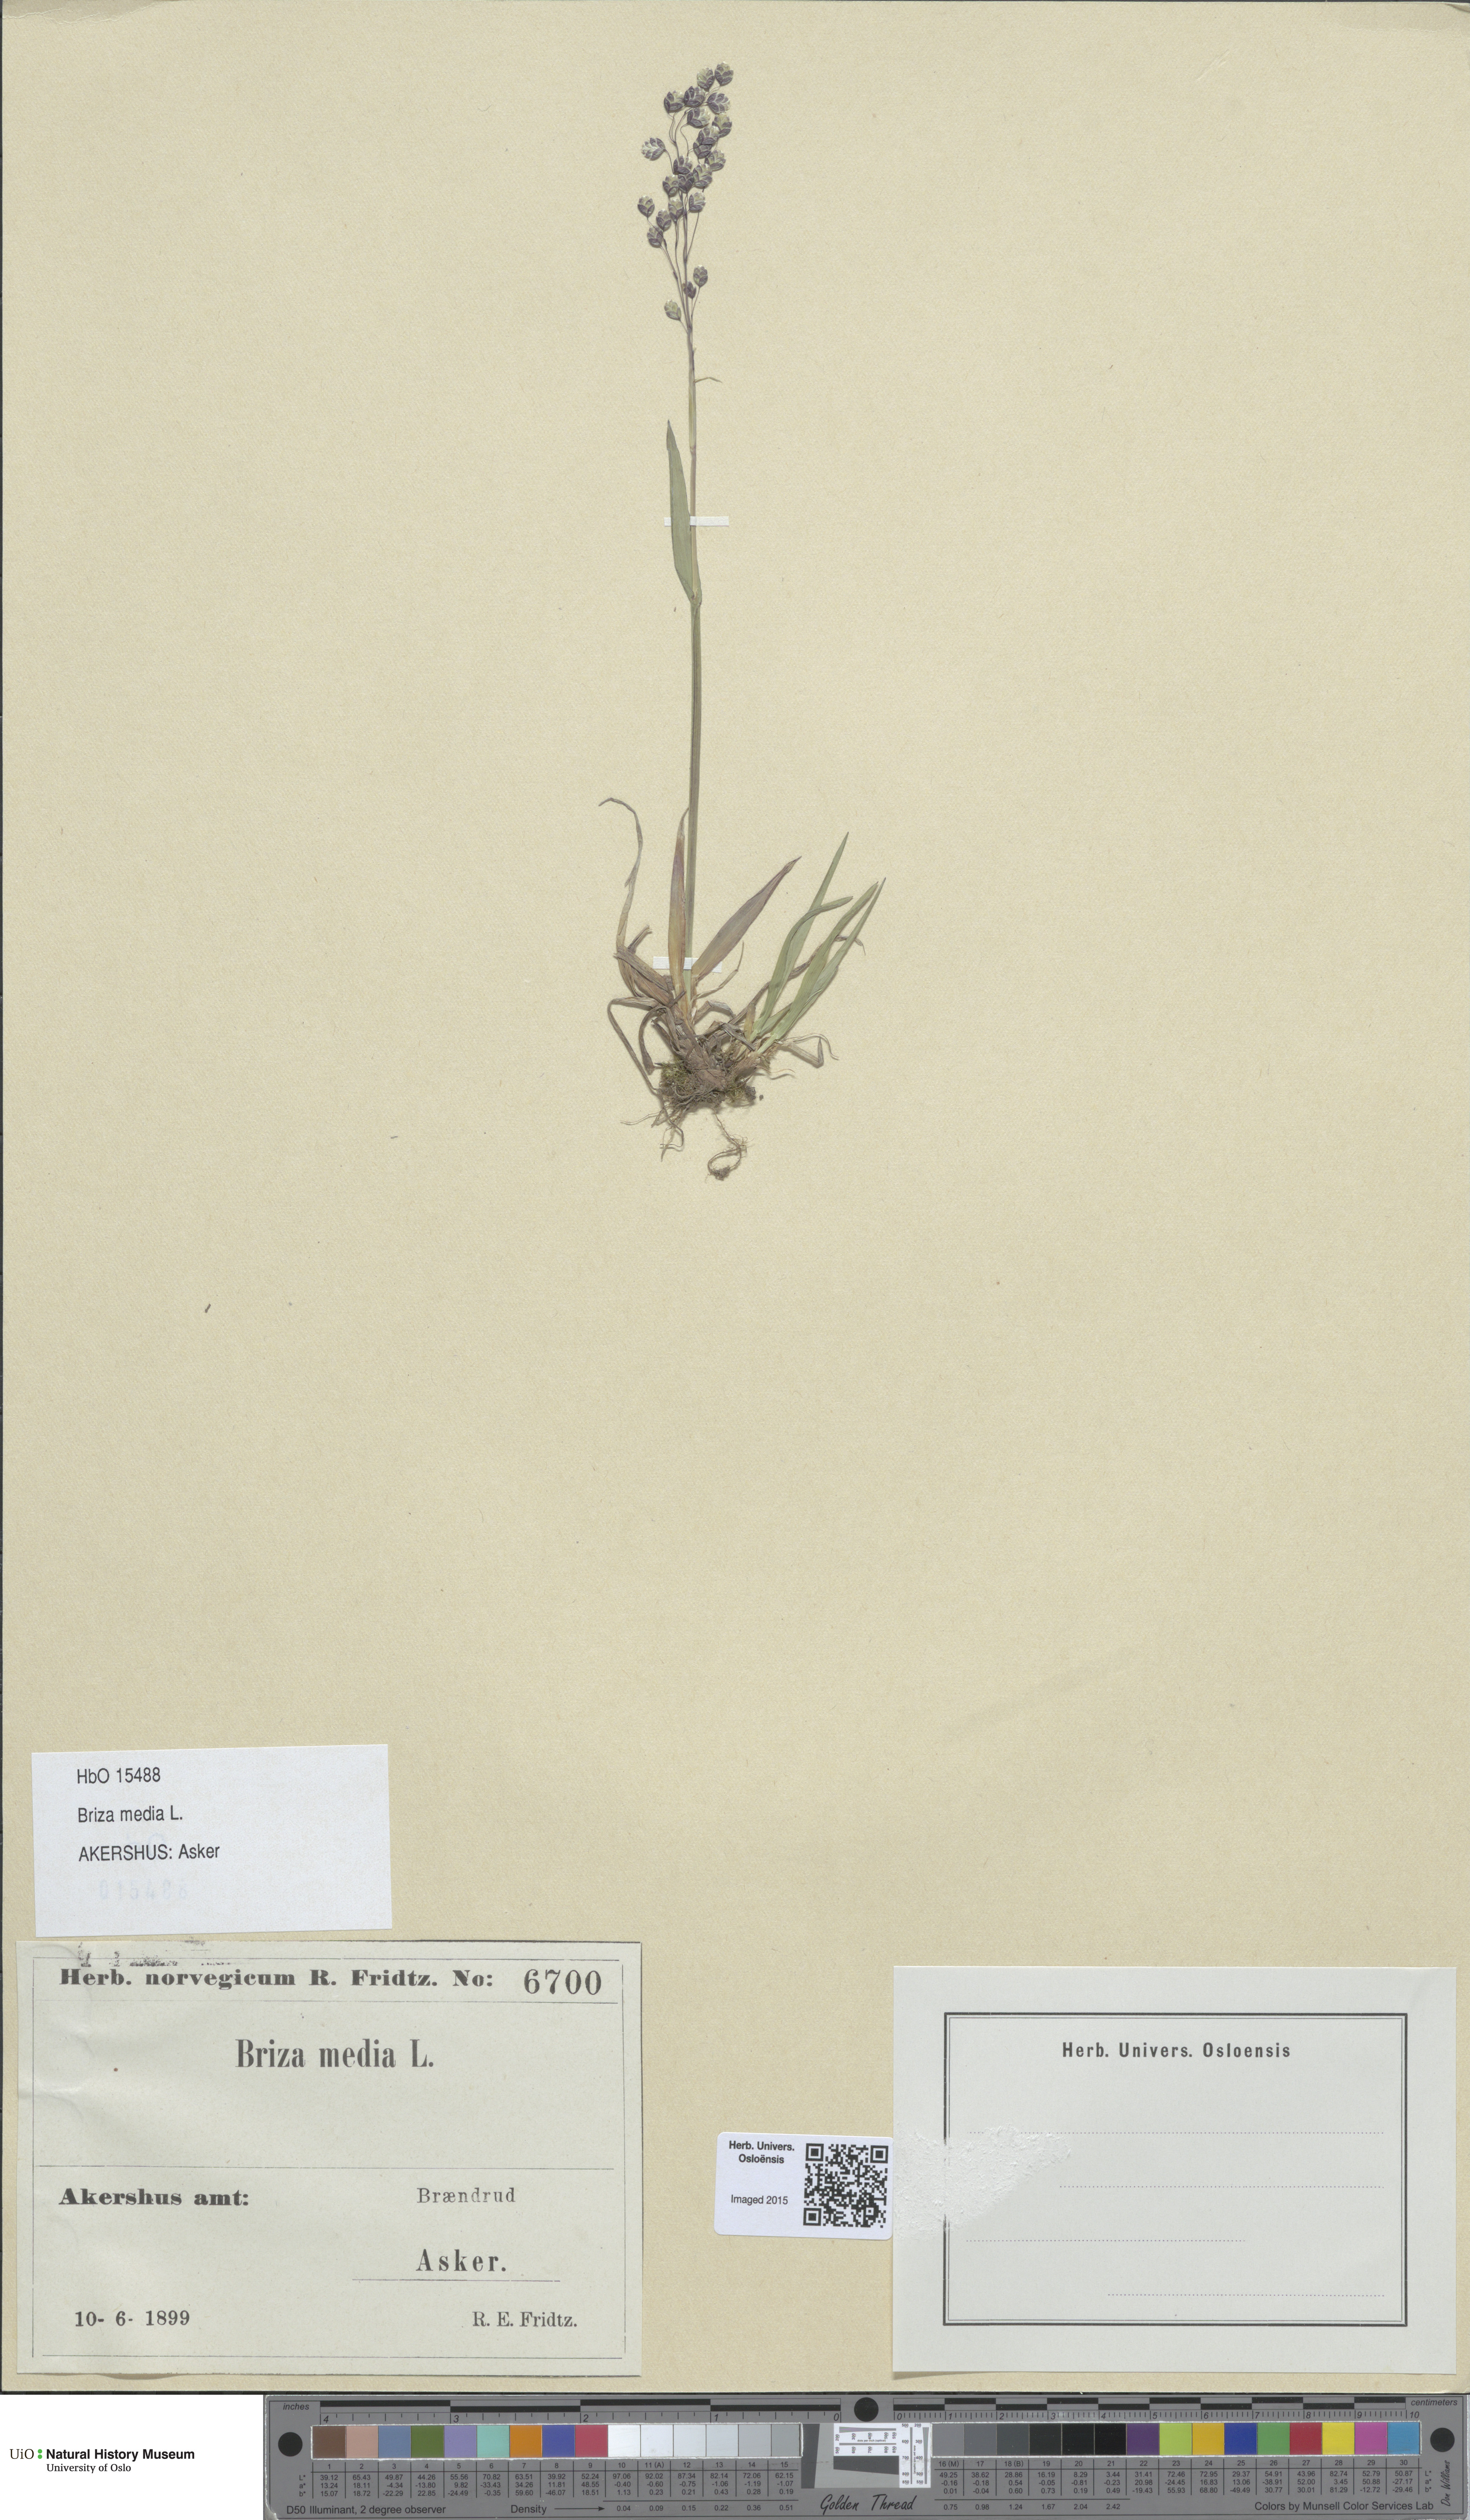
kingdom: Plantae
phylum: Tracheophyta
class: Liliopsida
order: Poales
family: Poaceae
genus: Briza
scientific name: Briza media
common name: Quaking grass
